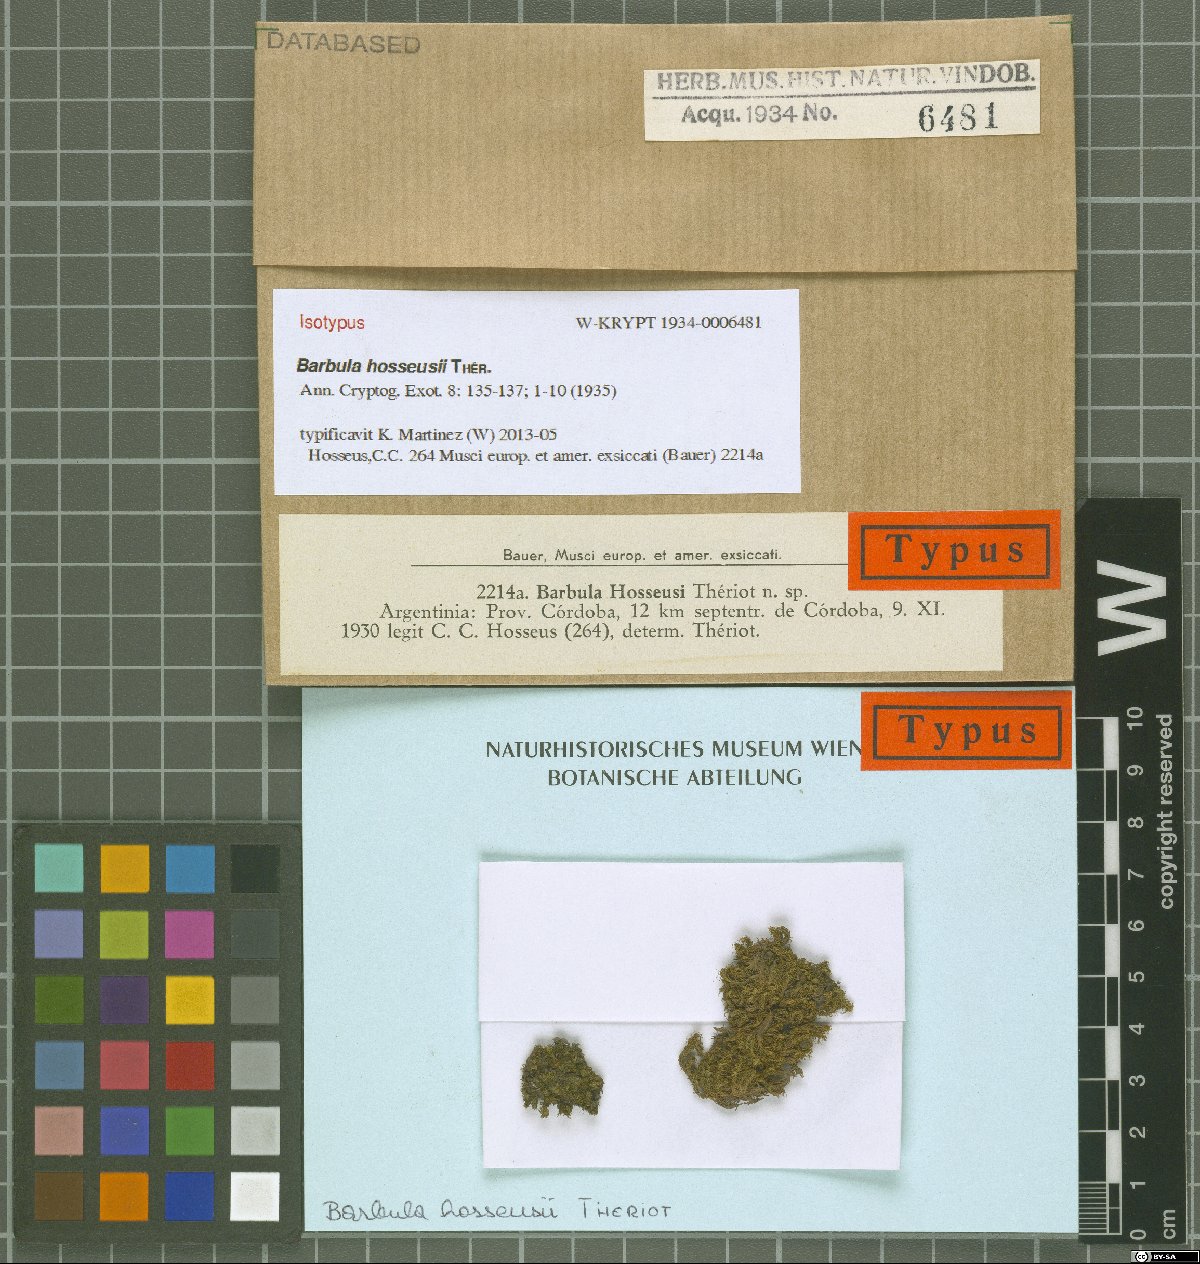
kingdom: Plantae
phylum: Bryophyta
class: Bryopsida
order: Pottiales
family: Pottiaceae
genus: Barbula
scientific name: Barbula hosseusii
